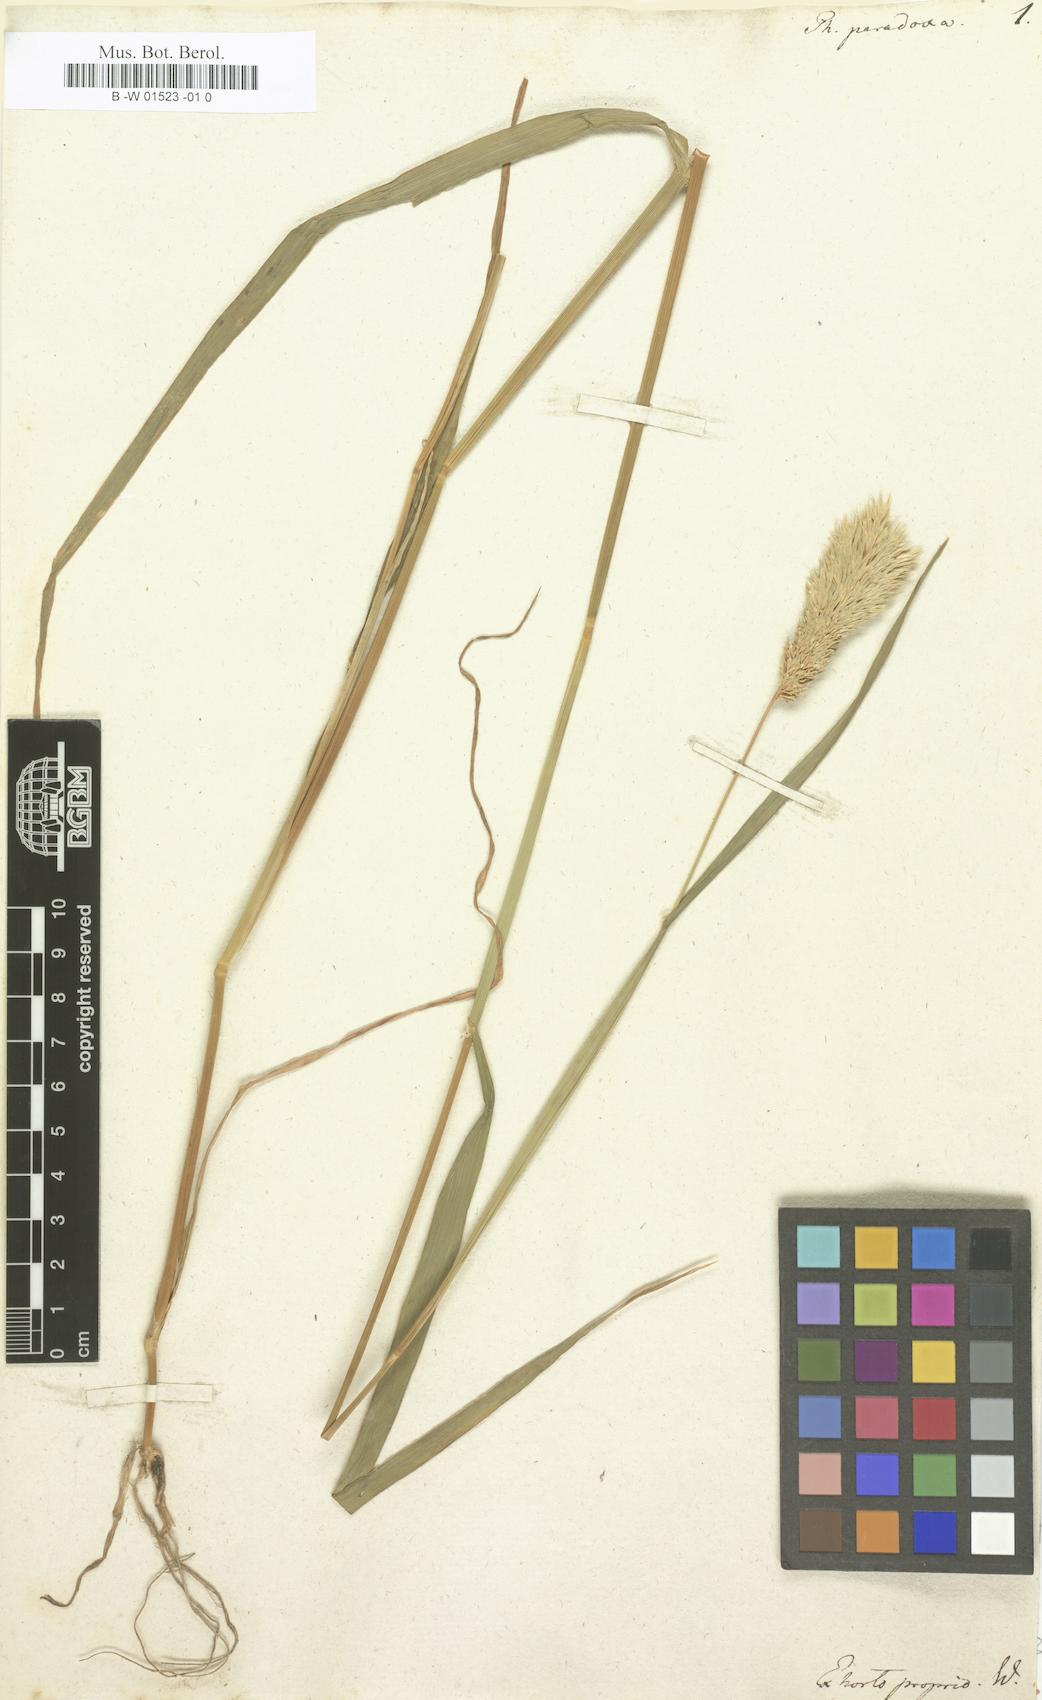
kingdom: Plantae
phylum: Tracheophyta
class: Liliopsida
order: Poales
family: Poaceae
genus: Phalaris
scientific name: Phalaris paradoxa
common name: Awned canary-grass
